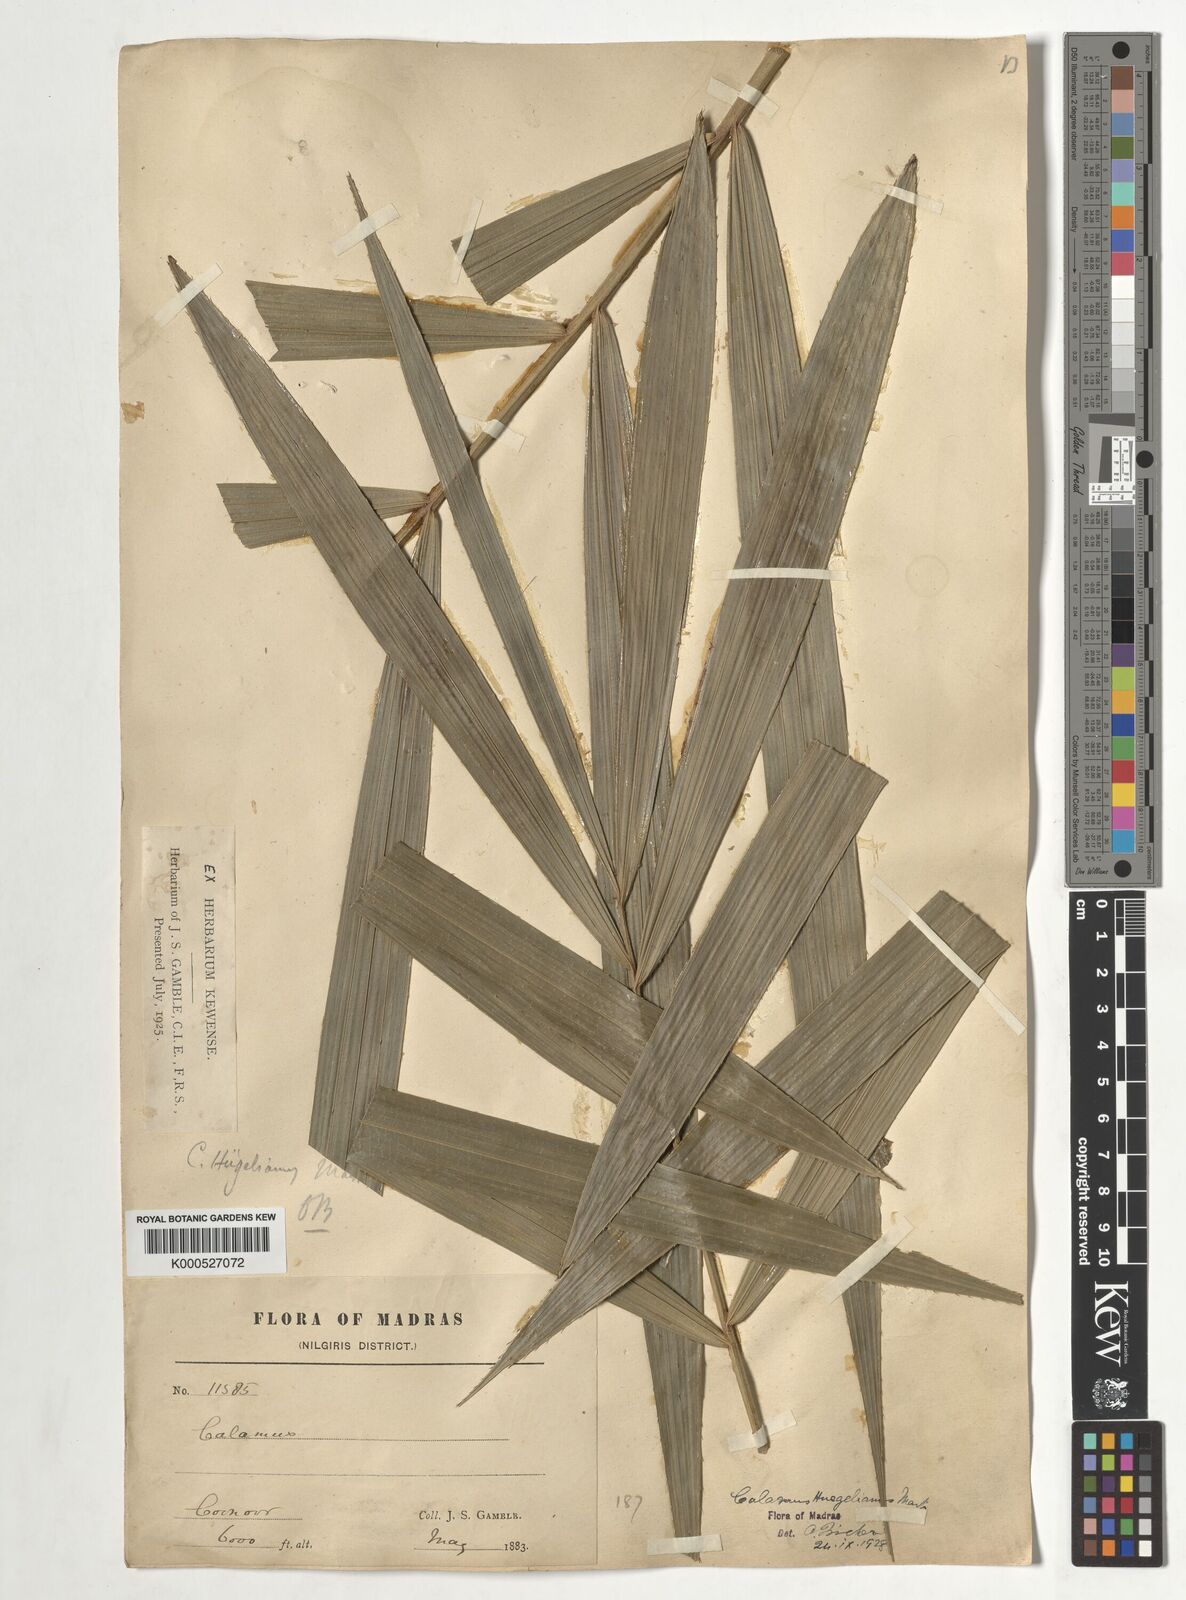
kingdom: Plantae
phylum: Tracheophyta
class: Liliopsida
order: Arecales
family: Arecaceae
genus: Calamus
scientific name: Calamus wightii
